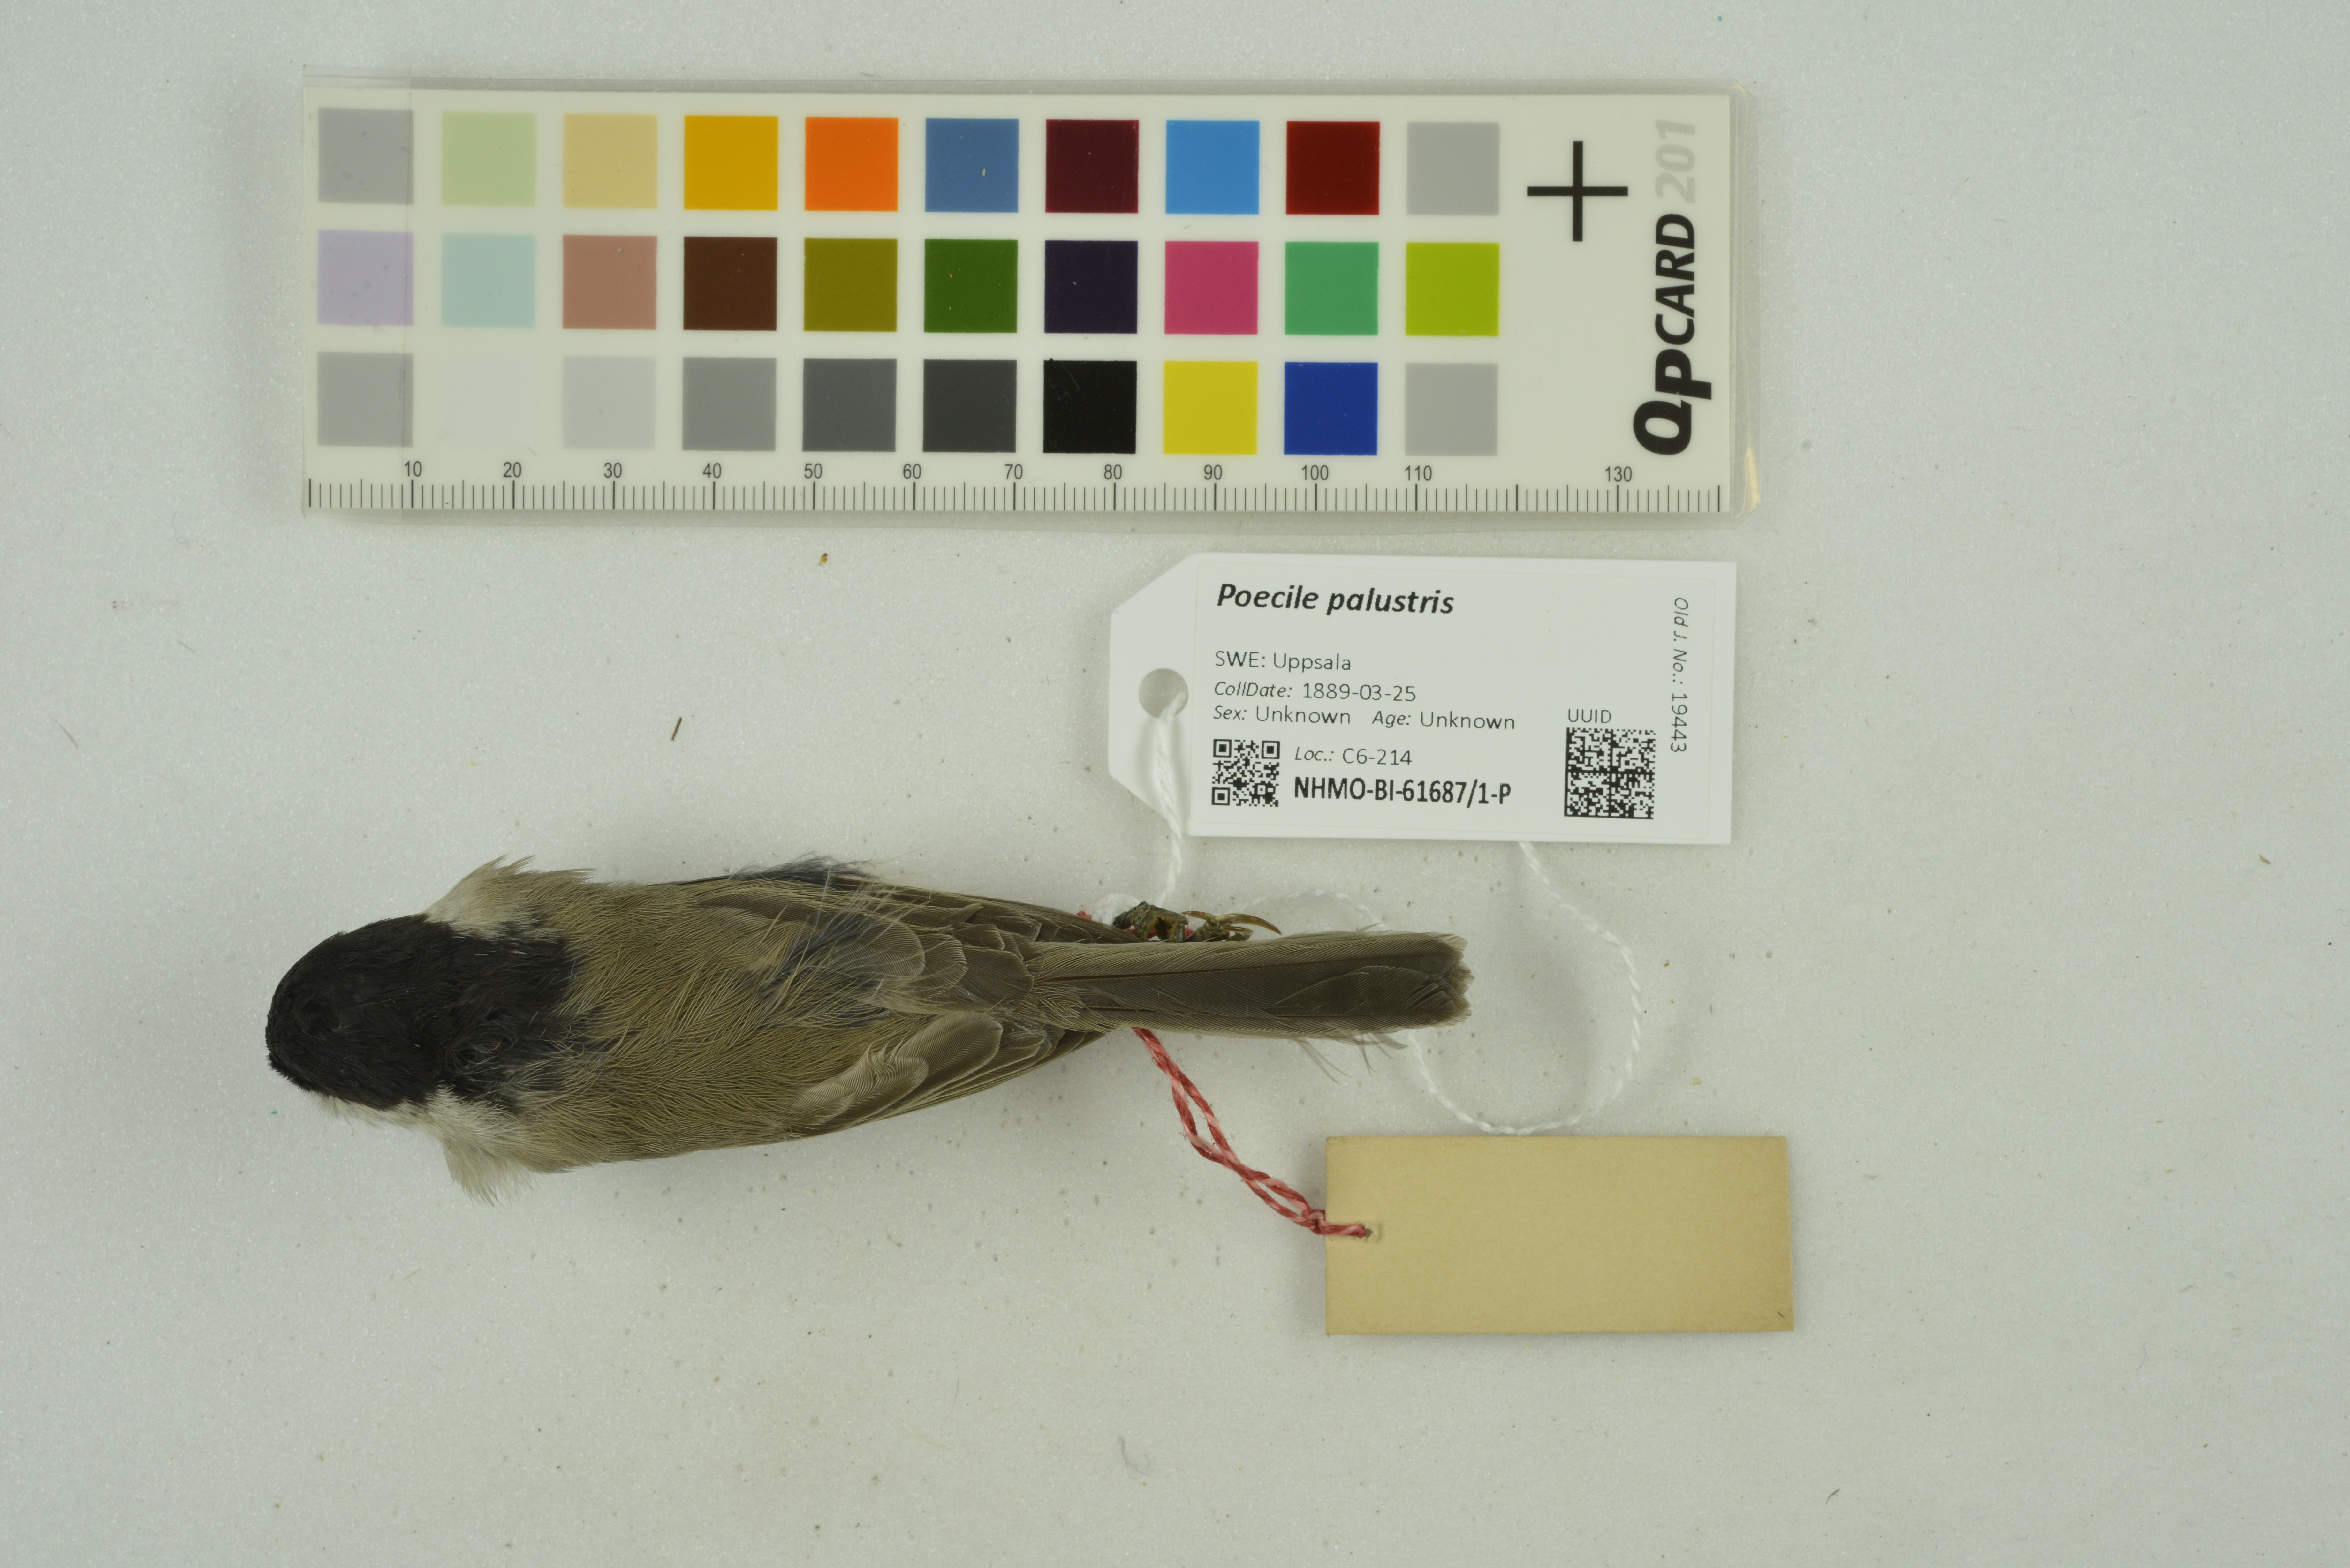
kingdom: Animalia
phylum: Chordata
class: Aves
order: Passeriformes
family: Paridae
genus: Poecile
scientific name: Poecile palustris
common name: Marsh tit
